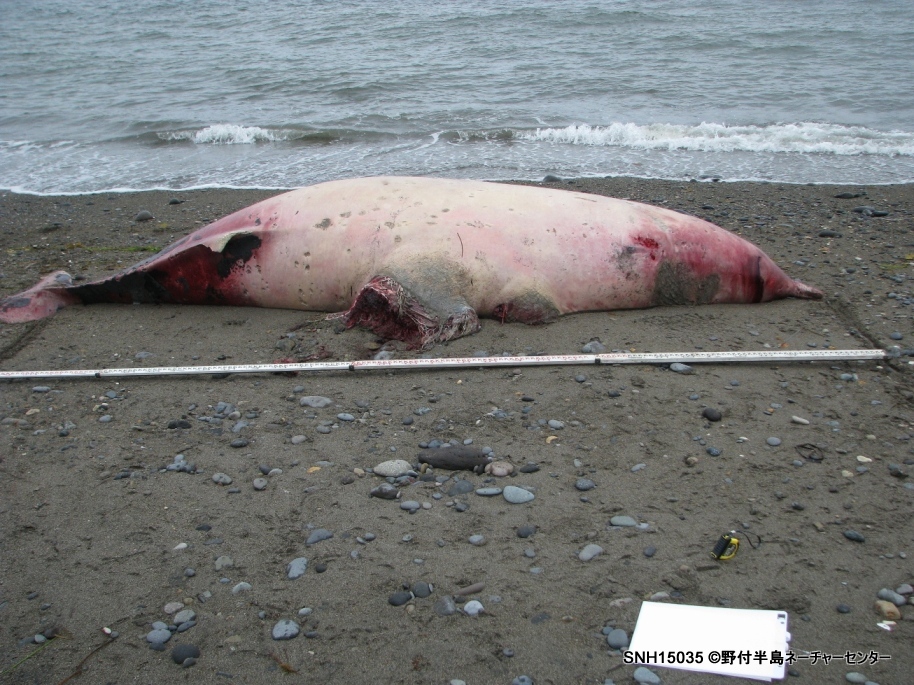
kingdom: Animalia
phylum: Chordata
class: Mammalia
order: Cetacea
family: Hyperoodontidae
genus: Mesoplodon
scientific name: Mesoplodon
